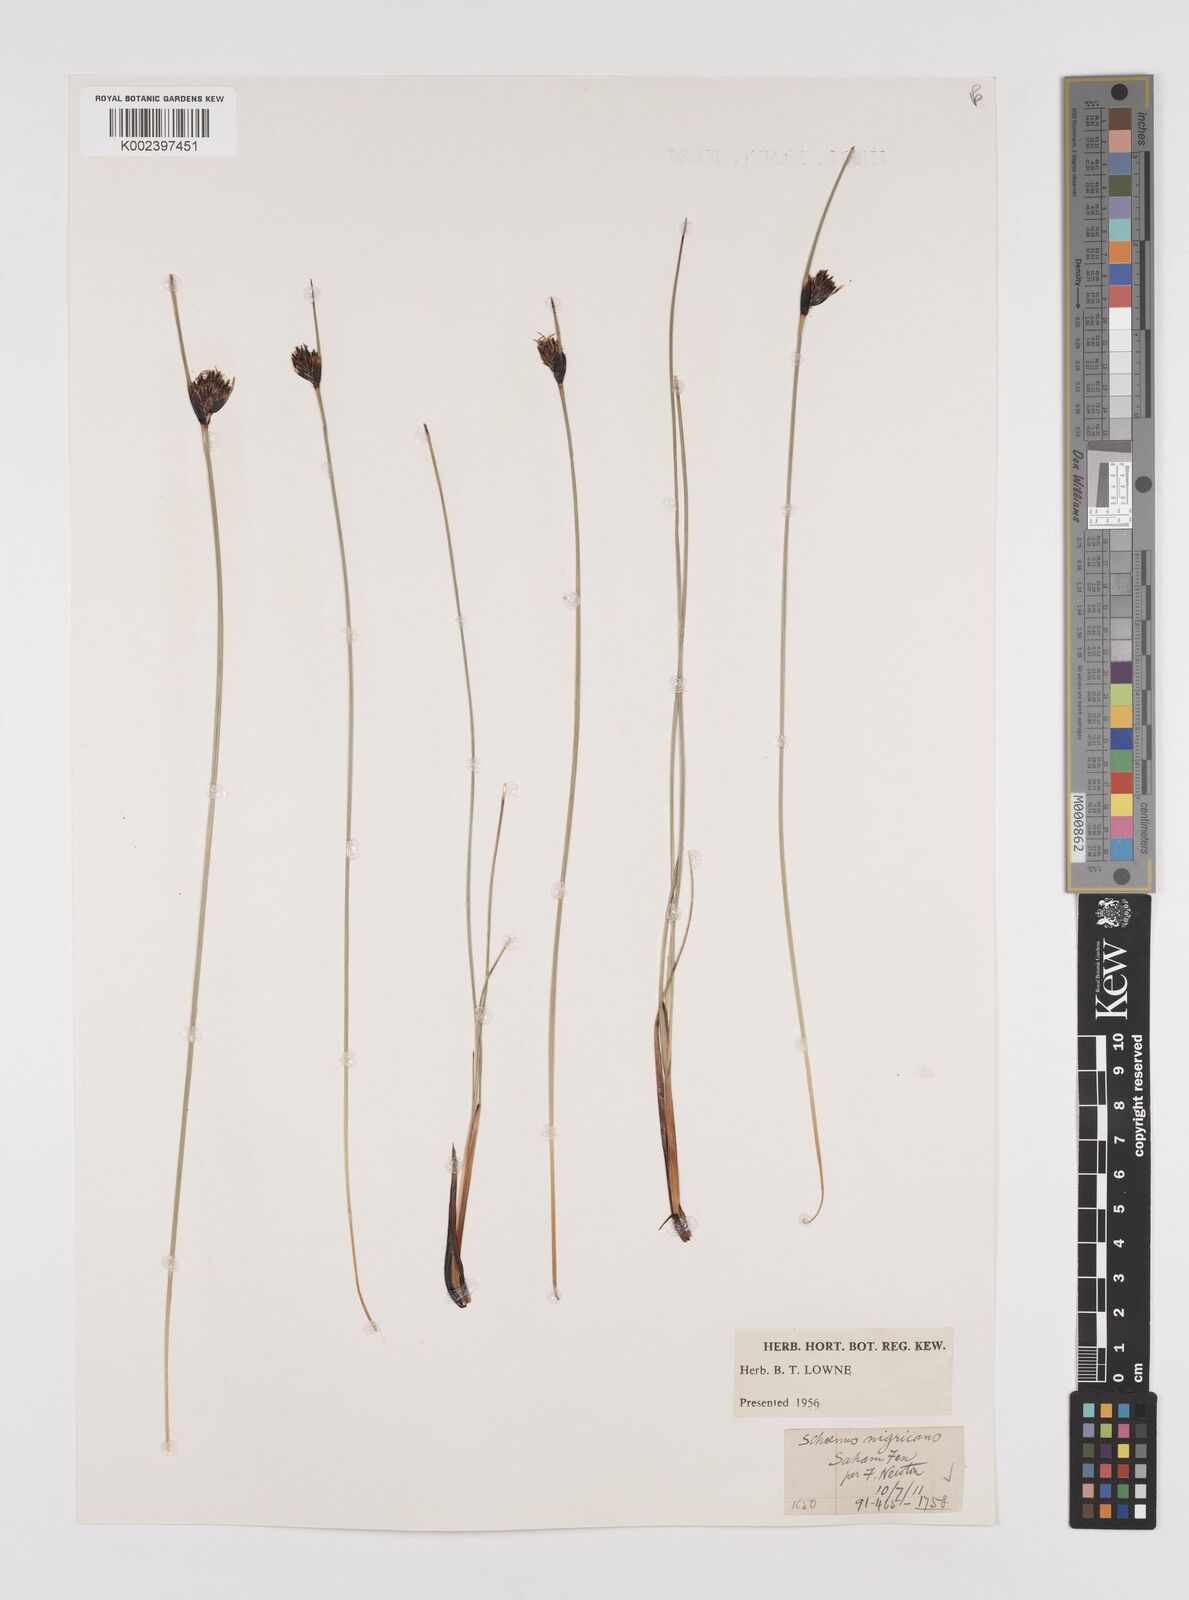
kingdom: Plantae
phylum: Tracheophyta
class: Liliopsida
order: Poales
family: Cyperaceae
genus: Schoenus
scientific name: Schoenus nigricans
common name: Black bog-rush
